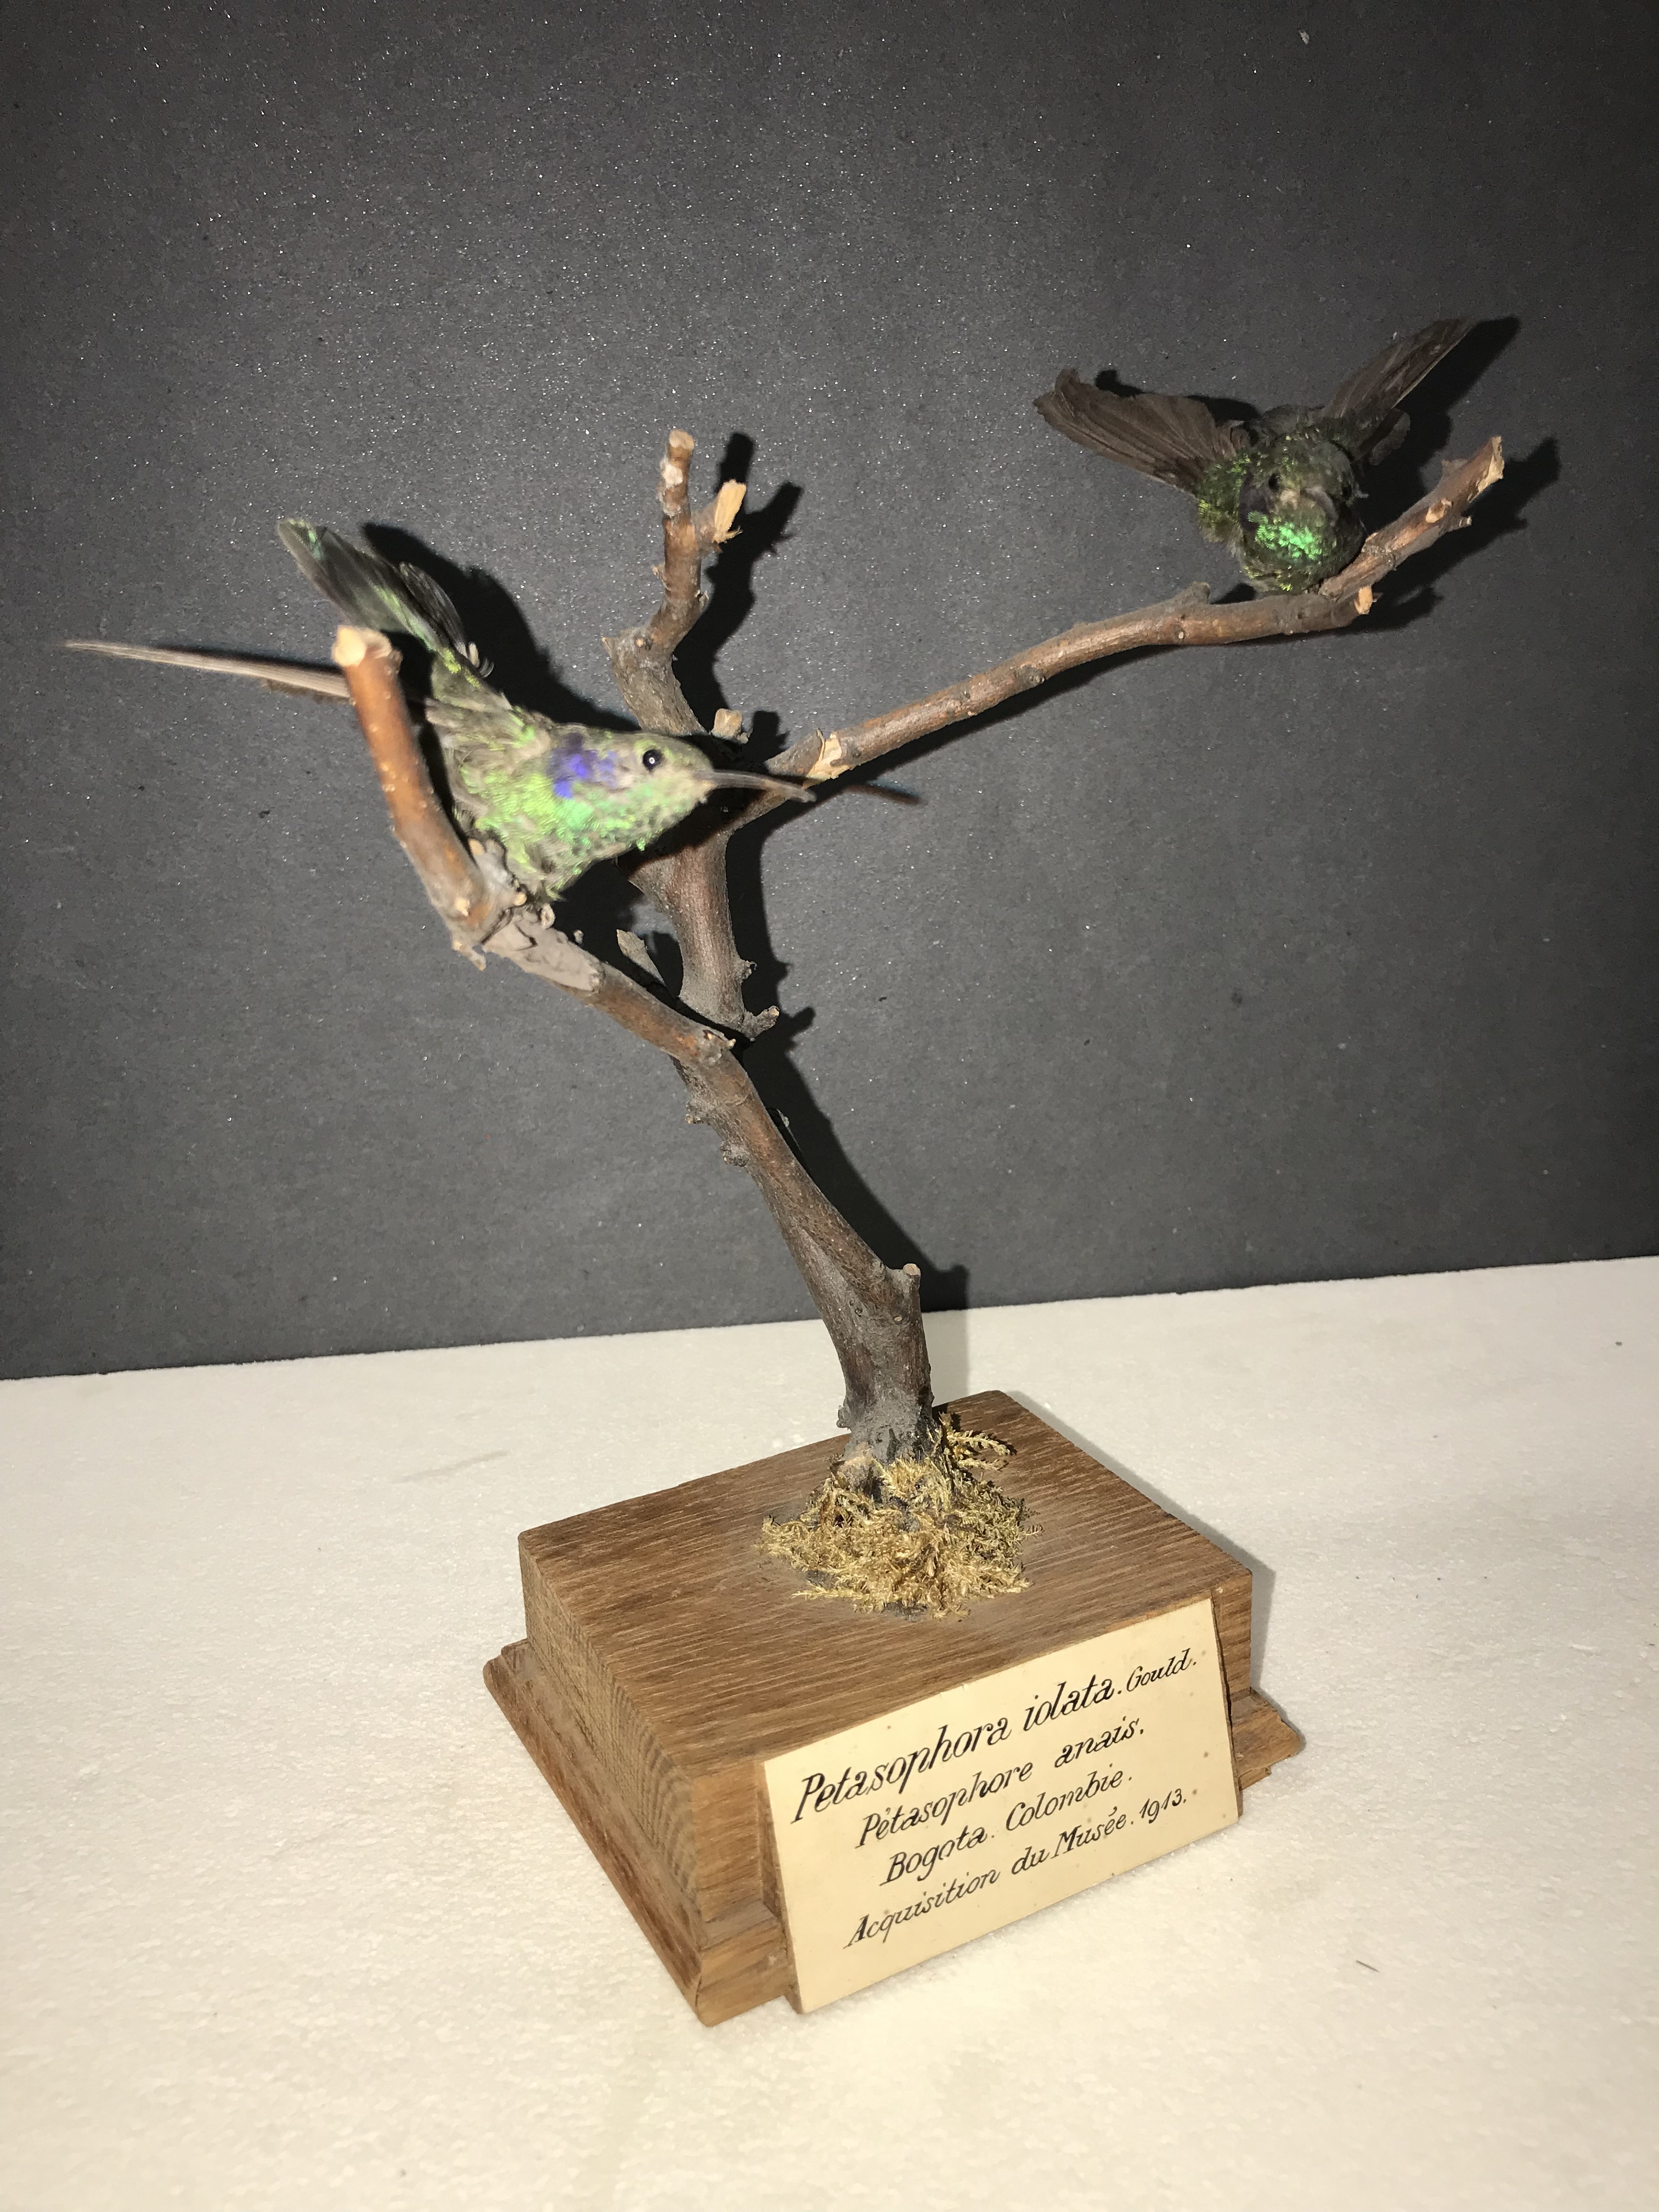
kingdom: Animalia
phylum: Chordata
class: Aves
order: Apodiformes
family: Trochilidae
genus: Colibri
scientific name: Colibri thalassinus
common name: Green violetear
